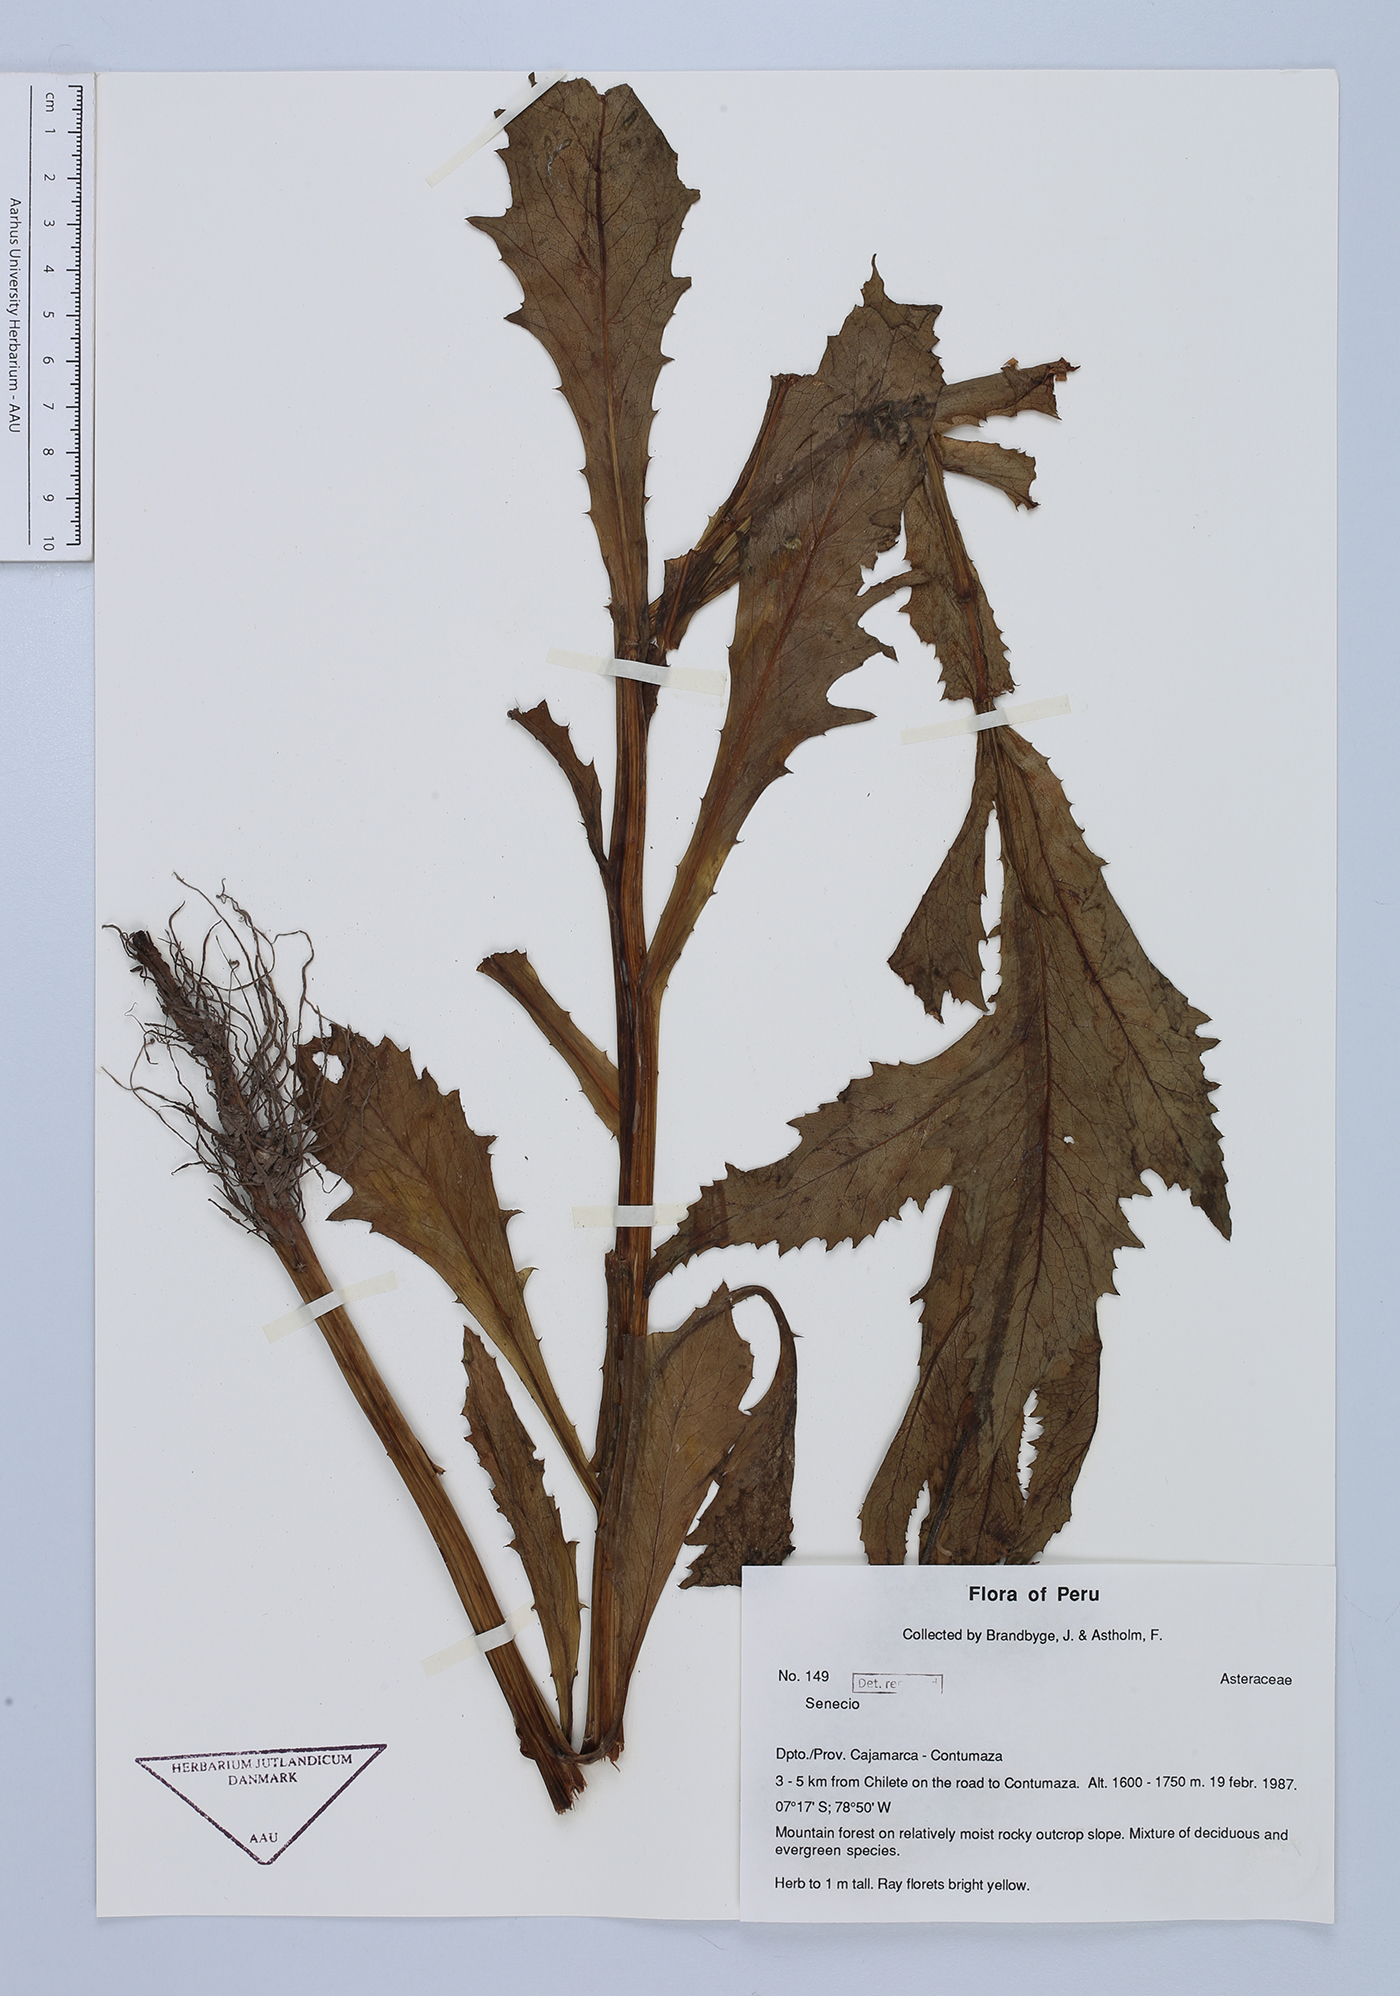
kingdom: Plantae
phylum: Tracheophyta
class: Magnoliopsida
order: Asterales
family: Asteraceae
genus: Senecio
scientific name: Senecio
